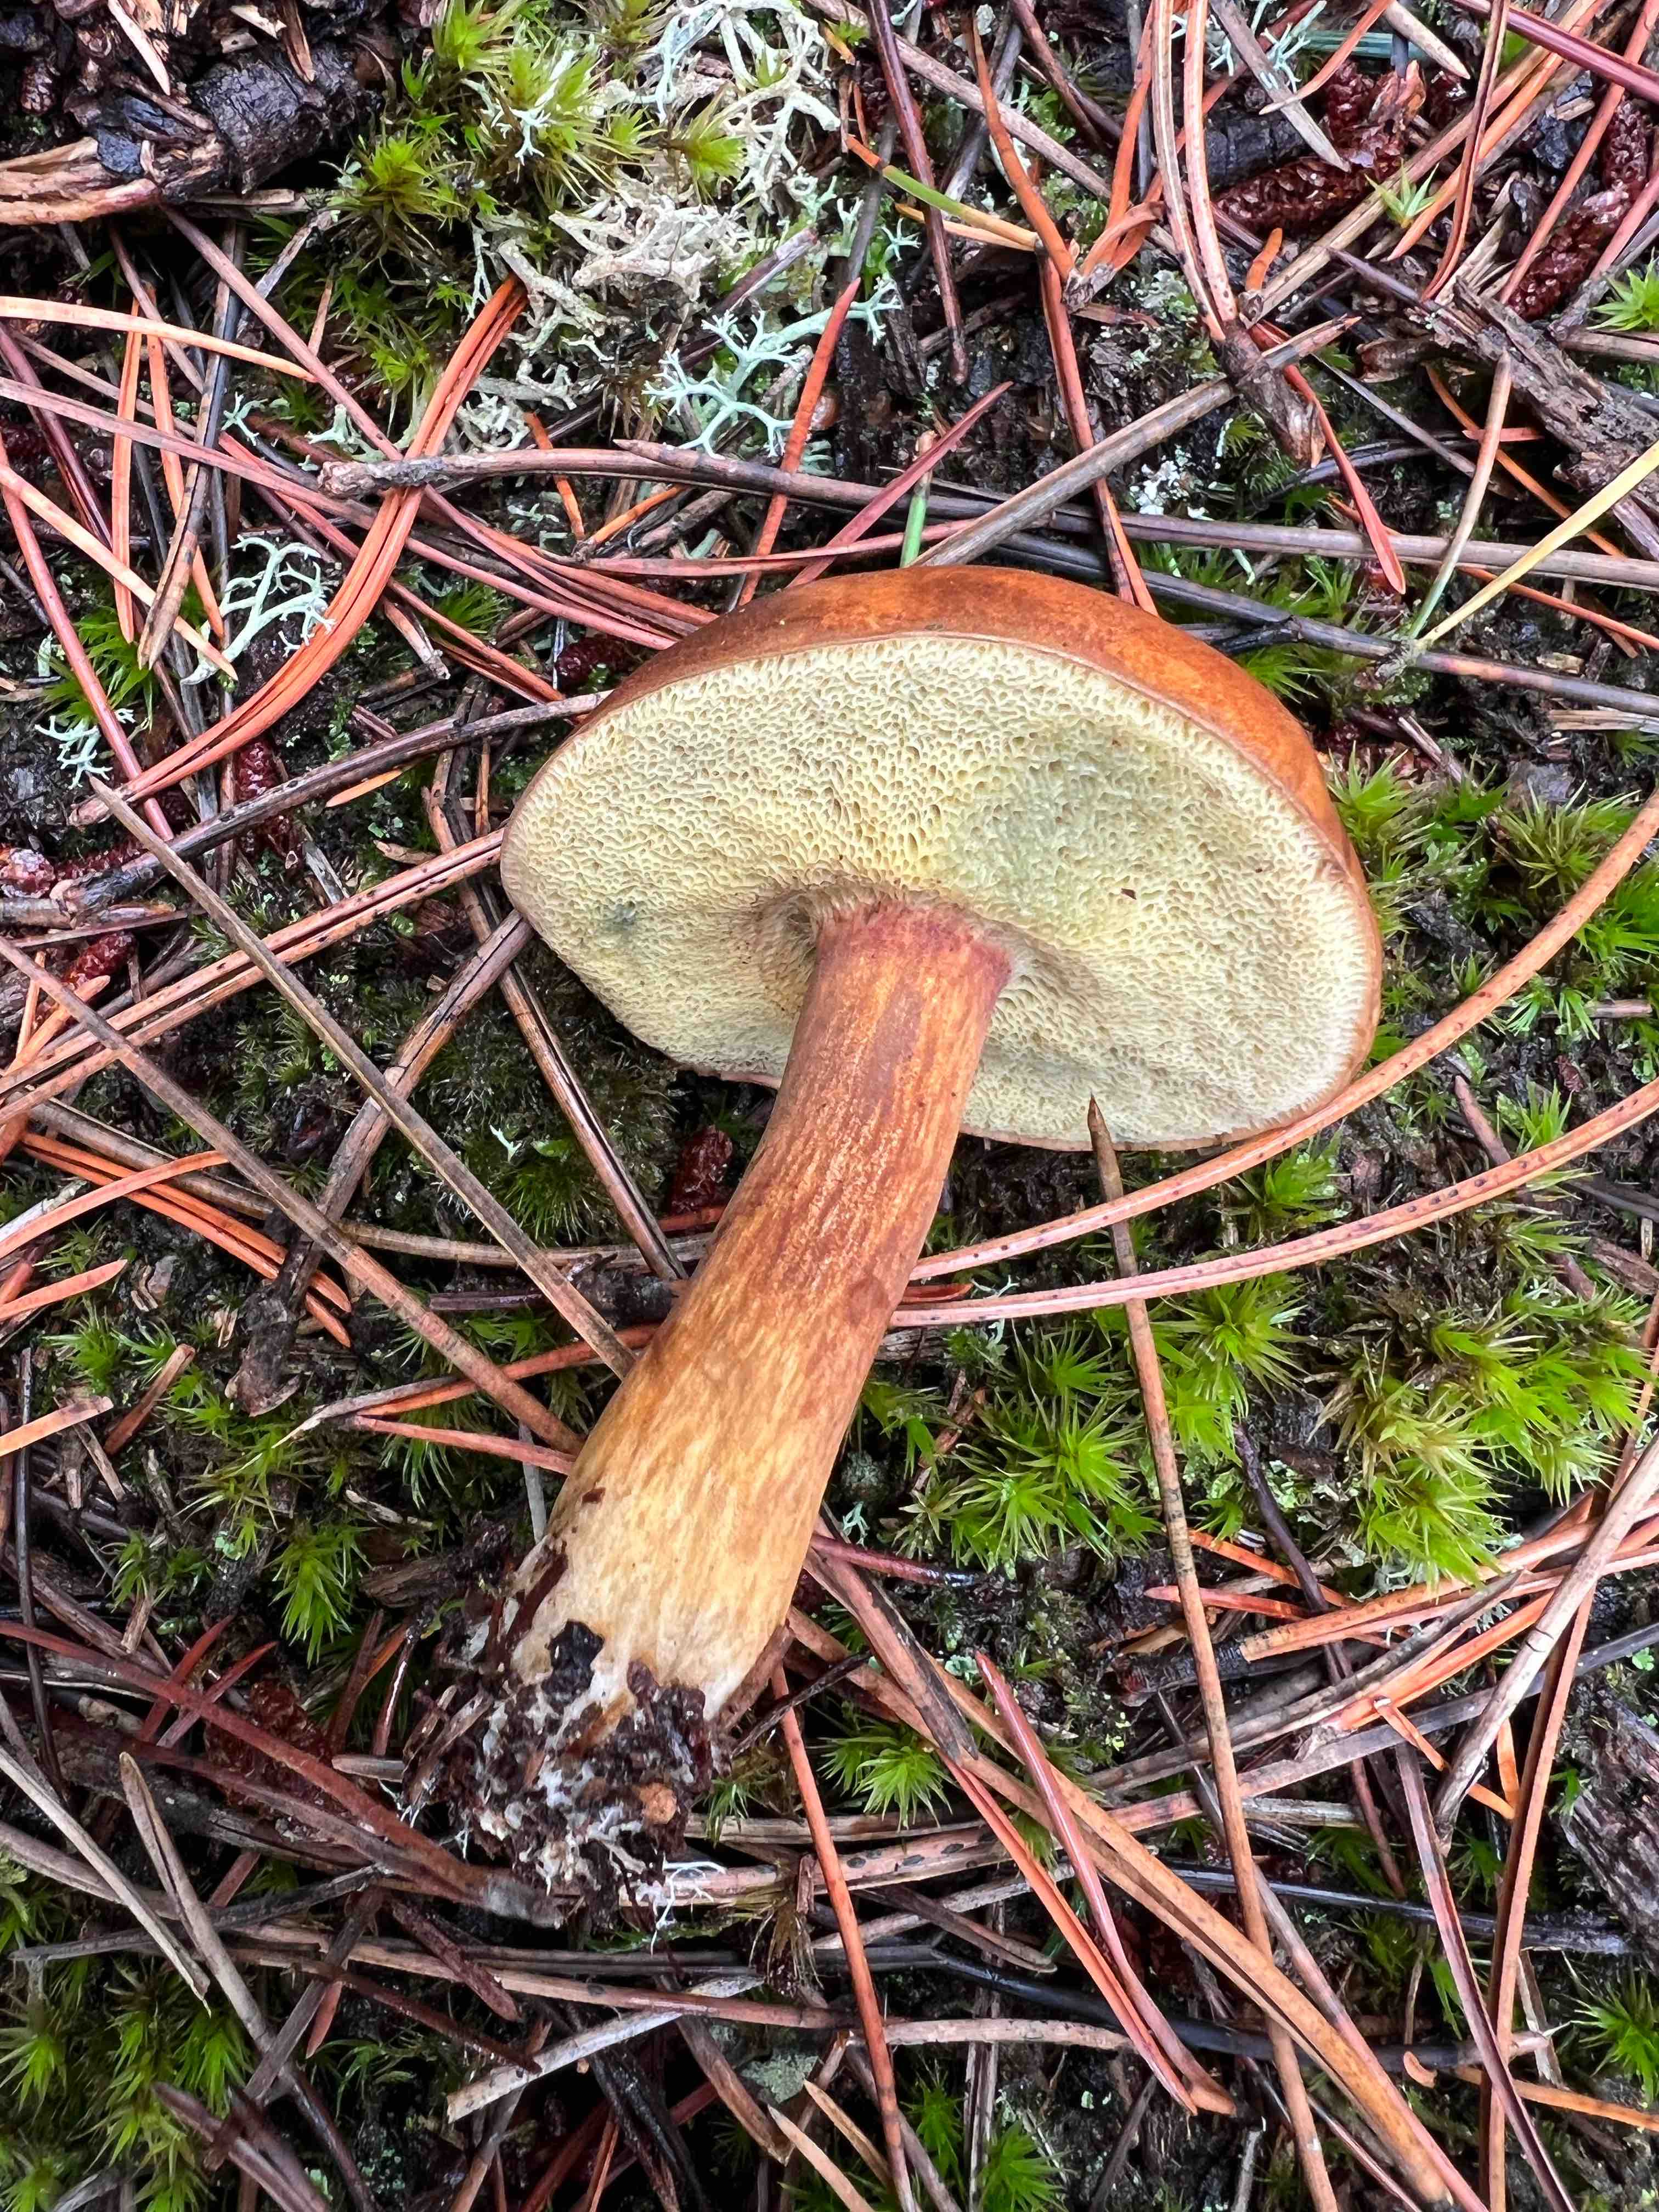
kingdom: Fungi
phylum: Basidiomycota
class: Agaricomycetes
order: Boletales
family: Boletaceae
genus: Imleria
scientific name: Imleria badia
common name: brunstokket rørhat
